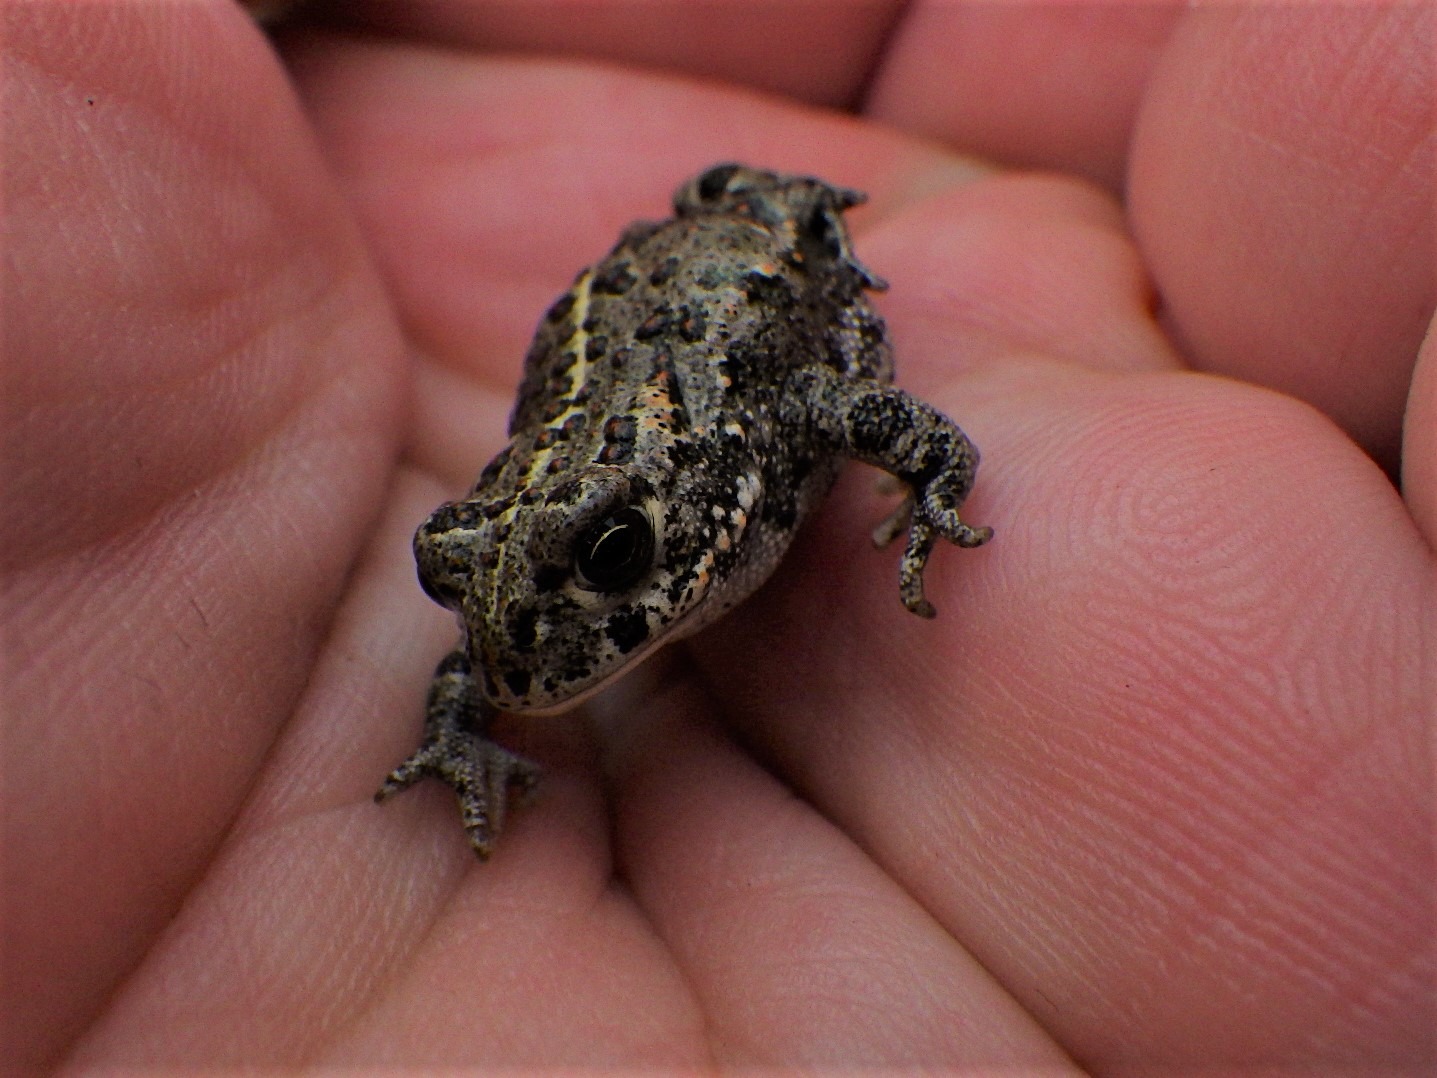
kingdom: Animalia
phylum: Chordata
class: Amphibia
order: Anura
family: Bufonidae
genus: Epidalea
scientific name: Epidalea calamita
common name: Strandtudse
